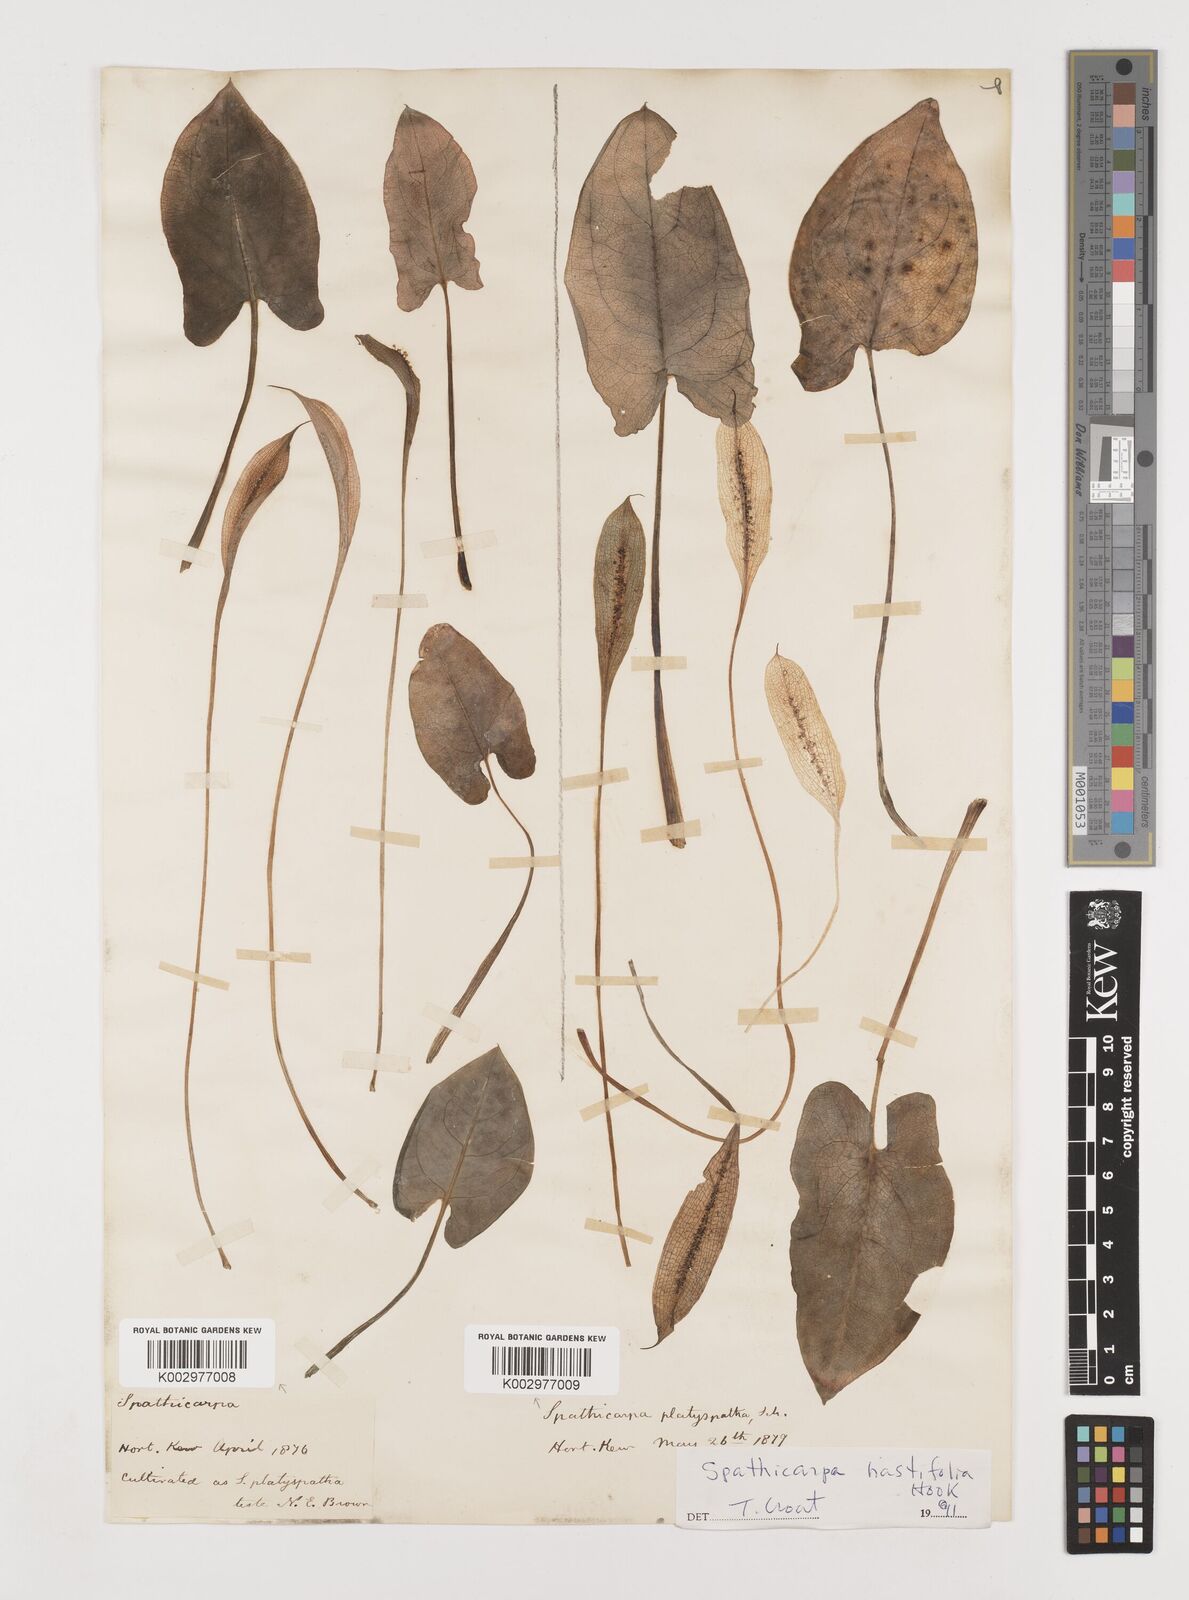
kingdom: Plantae
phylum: Tracheophyta
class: Liliopsida
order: Alismatales
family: Araceae
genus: Spathicarpa
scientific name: Spathicarpa hastifolia
